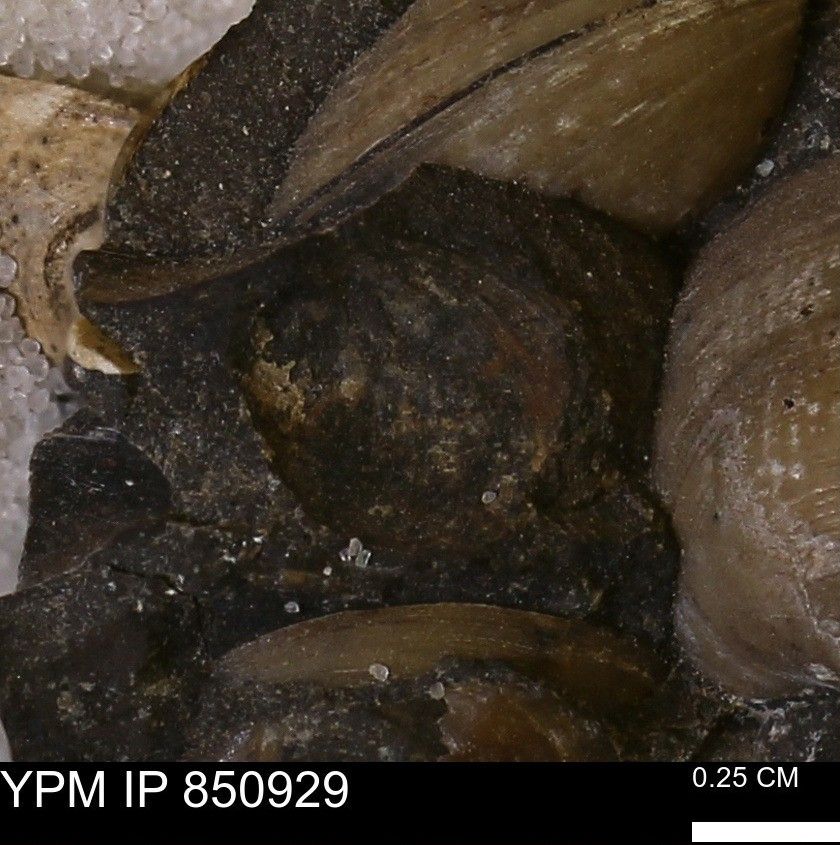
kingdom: Animalia
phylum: Mollusca
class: Bivalvia
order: Arcida
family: Limopsidae
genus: Limopsis
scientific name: Limopsis
